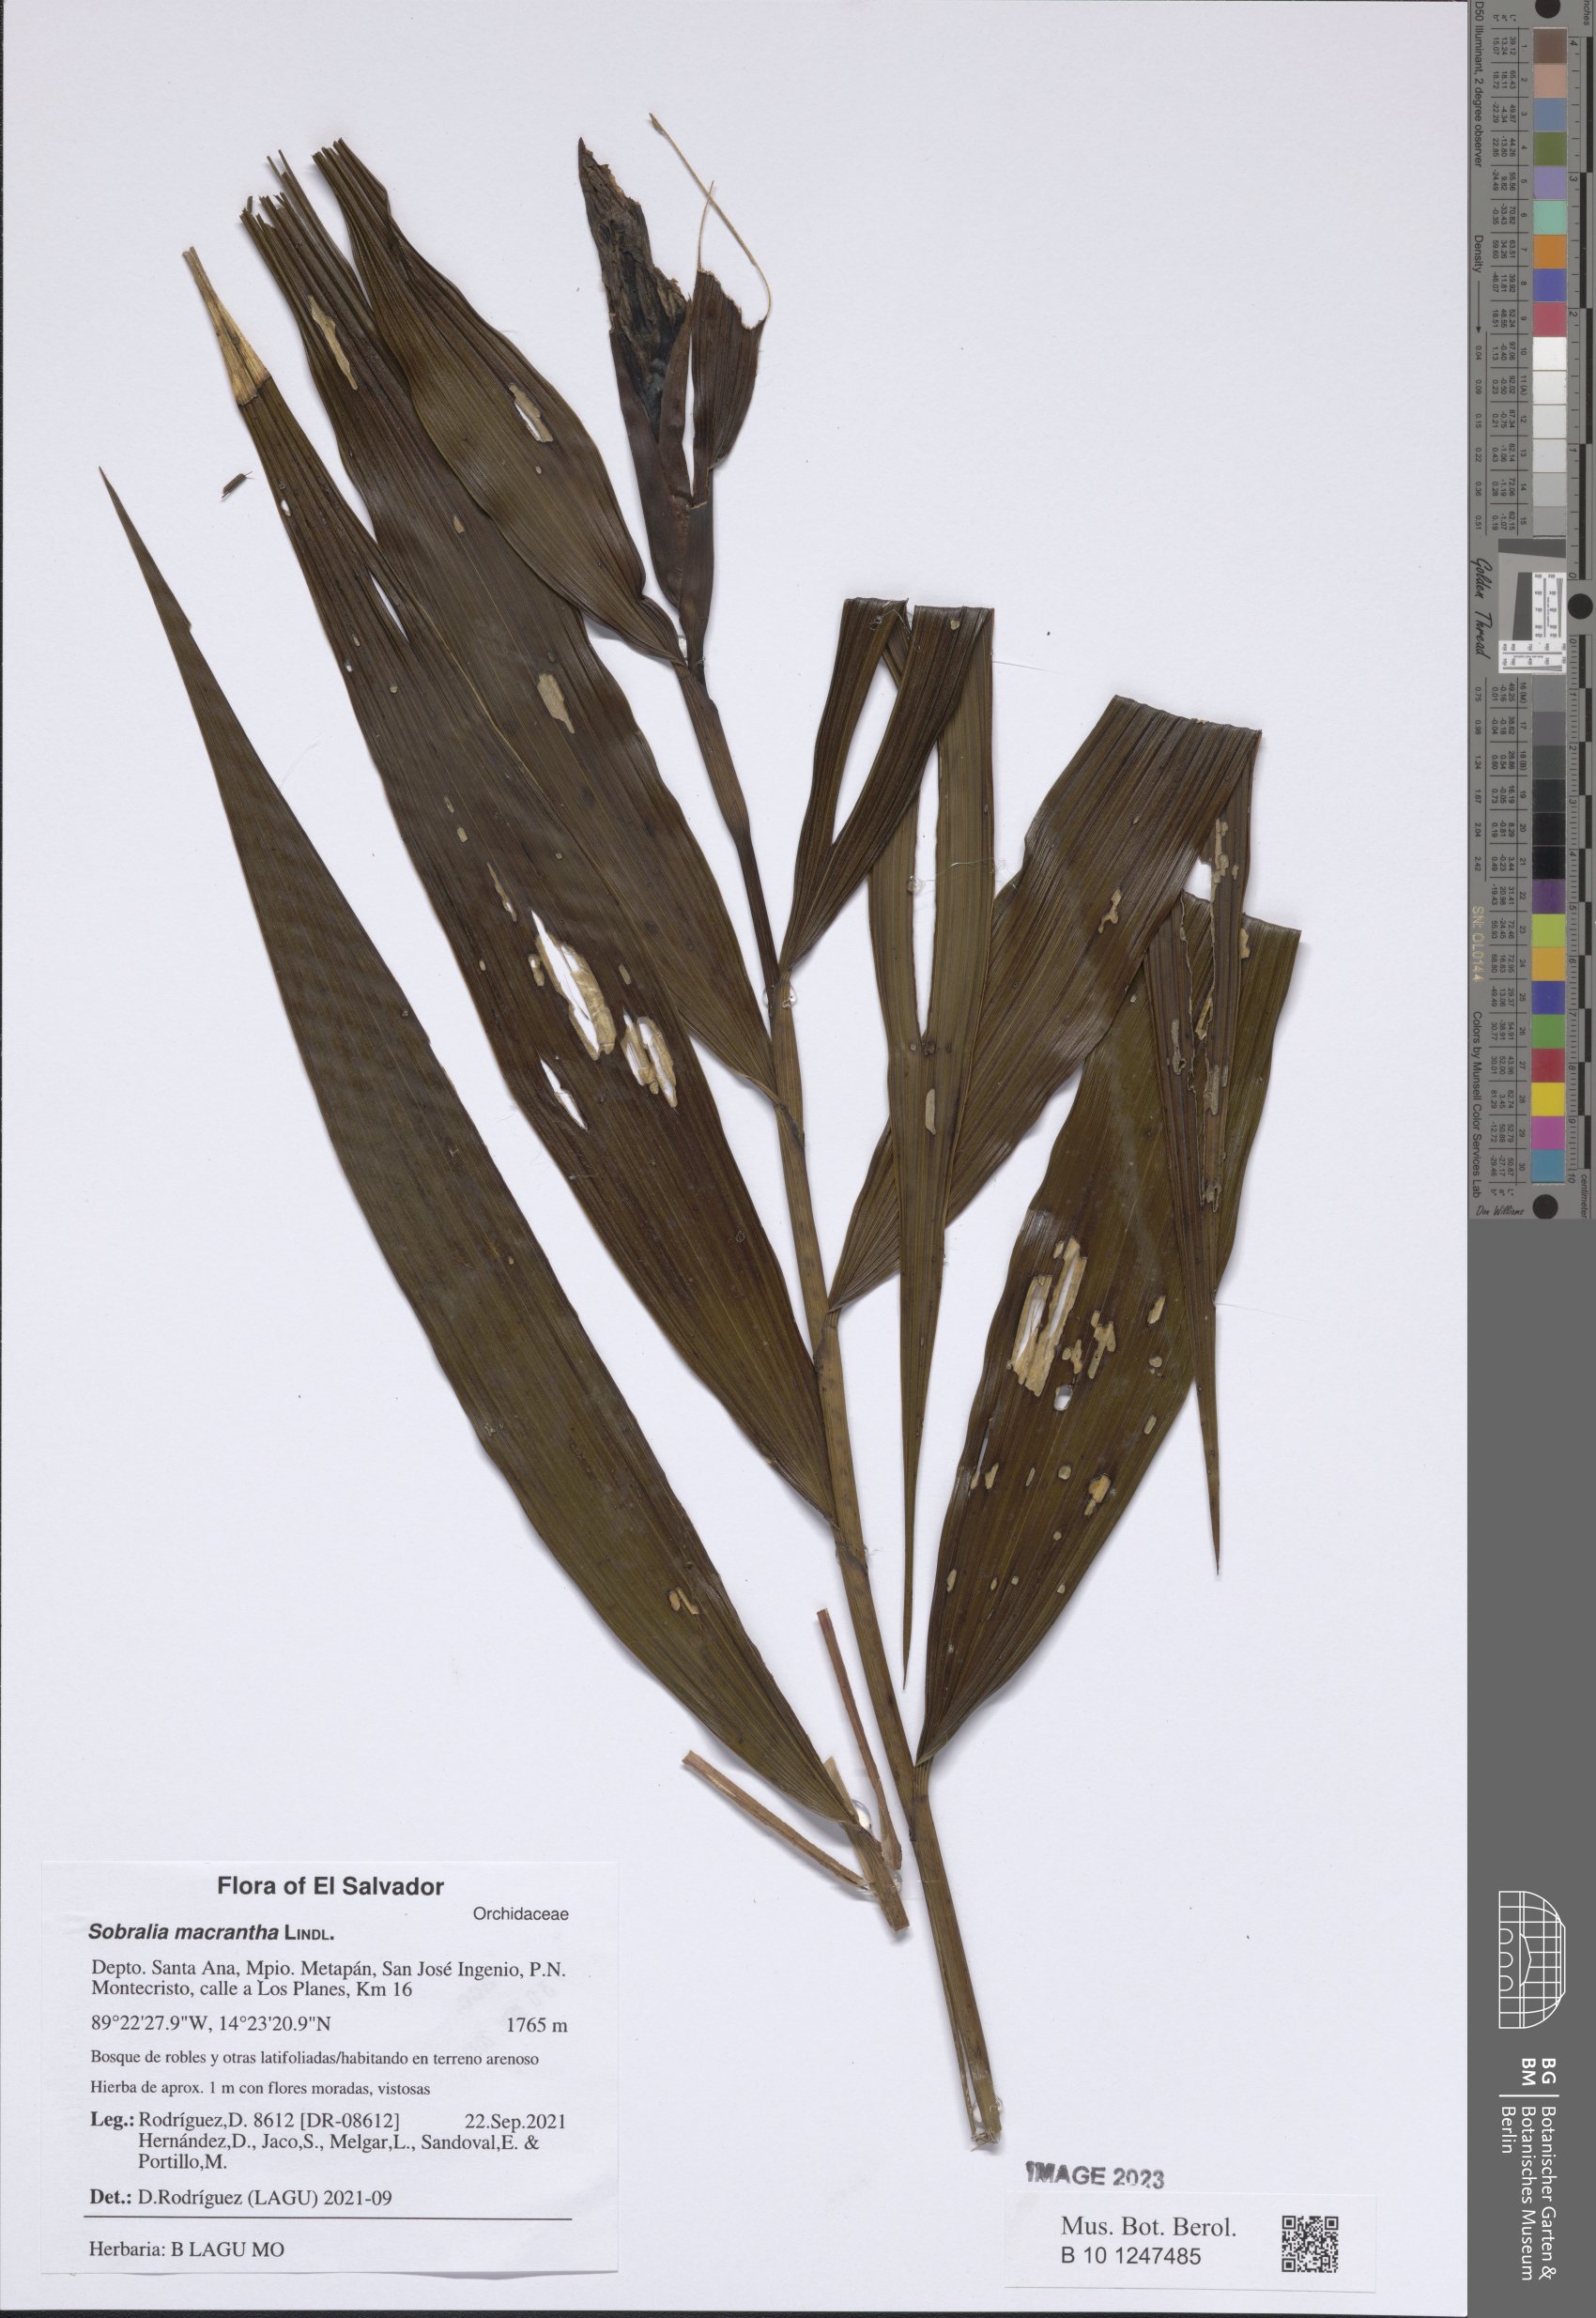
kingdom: Plantae
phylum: Tracheophyta
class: Liliopsida
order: Asparagales
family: Orchidaceae
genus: Sobralia
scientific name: Sobralia macrantha
